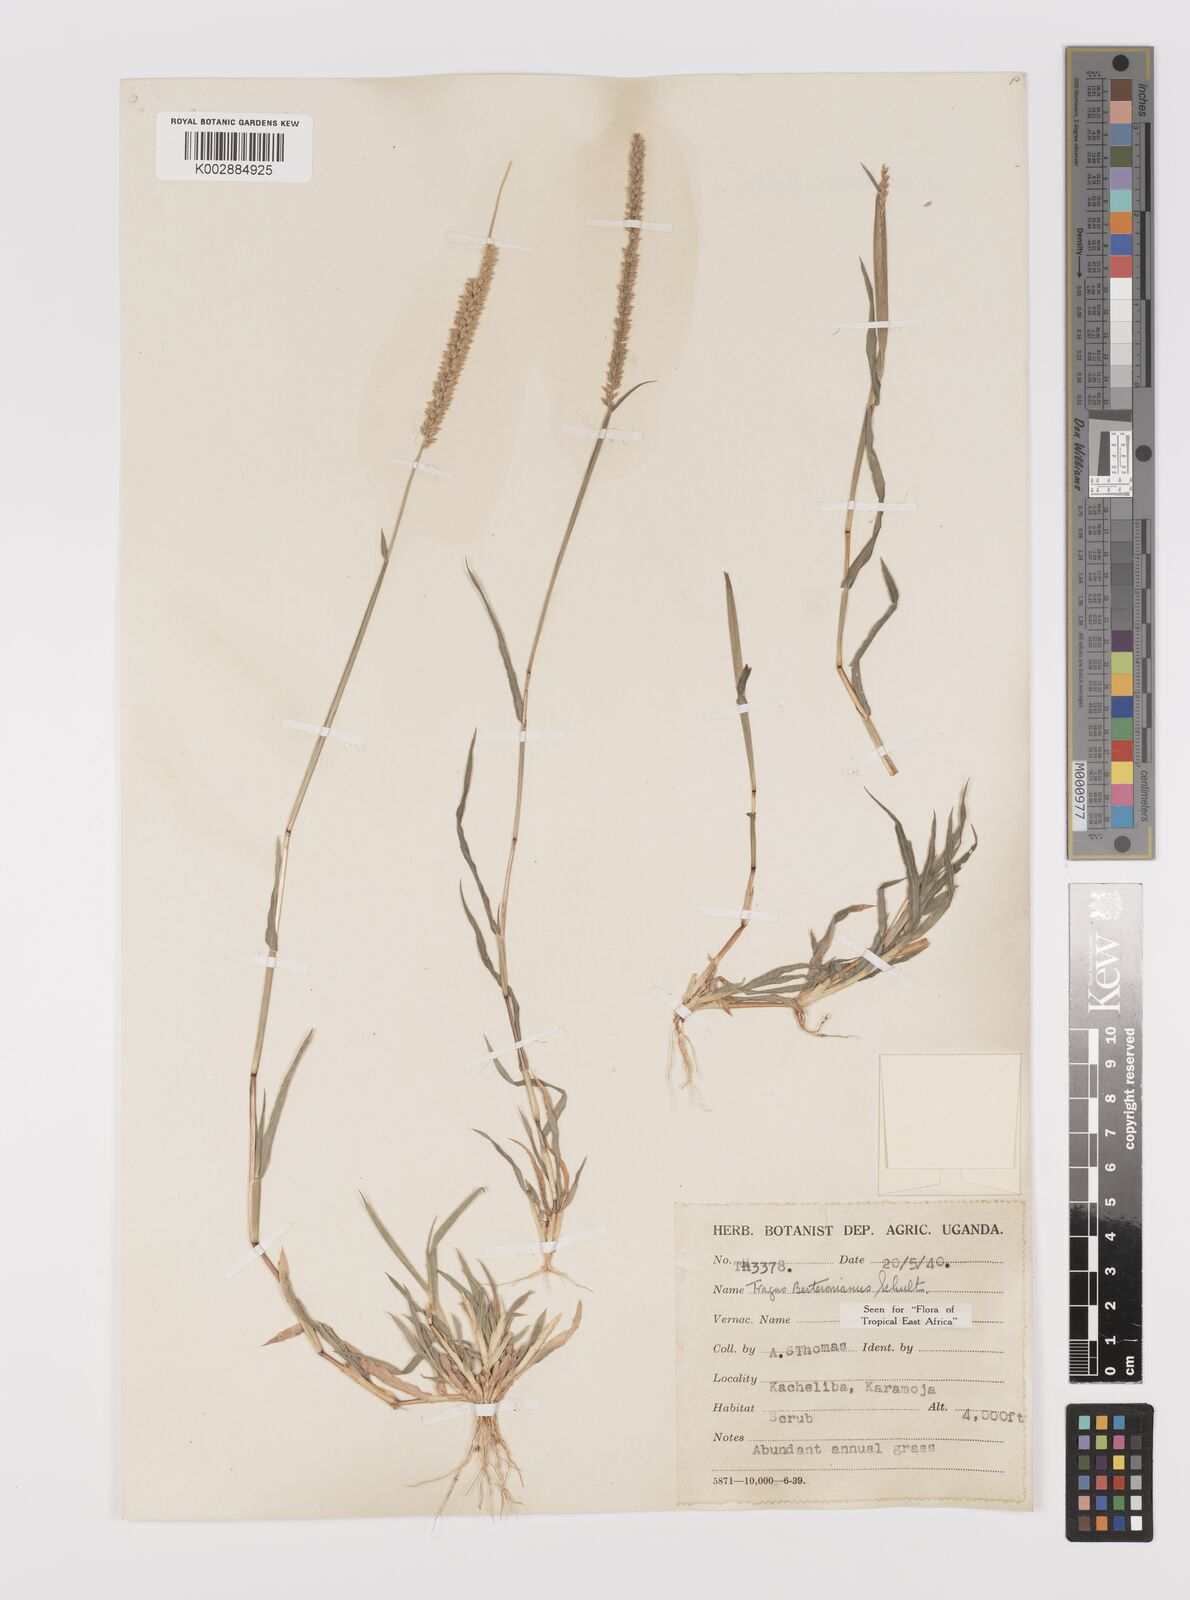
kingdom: Plantae
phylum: Tracheophyta
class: Liliopsida
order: Poales
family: Poaceae
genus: Tragus
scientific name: Tragus berteronianus
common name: African bur-grass
